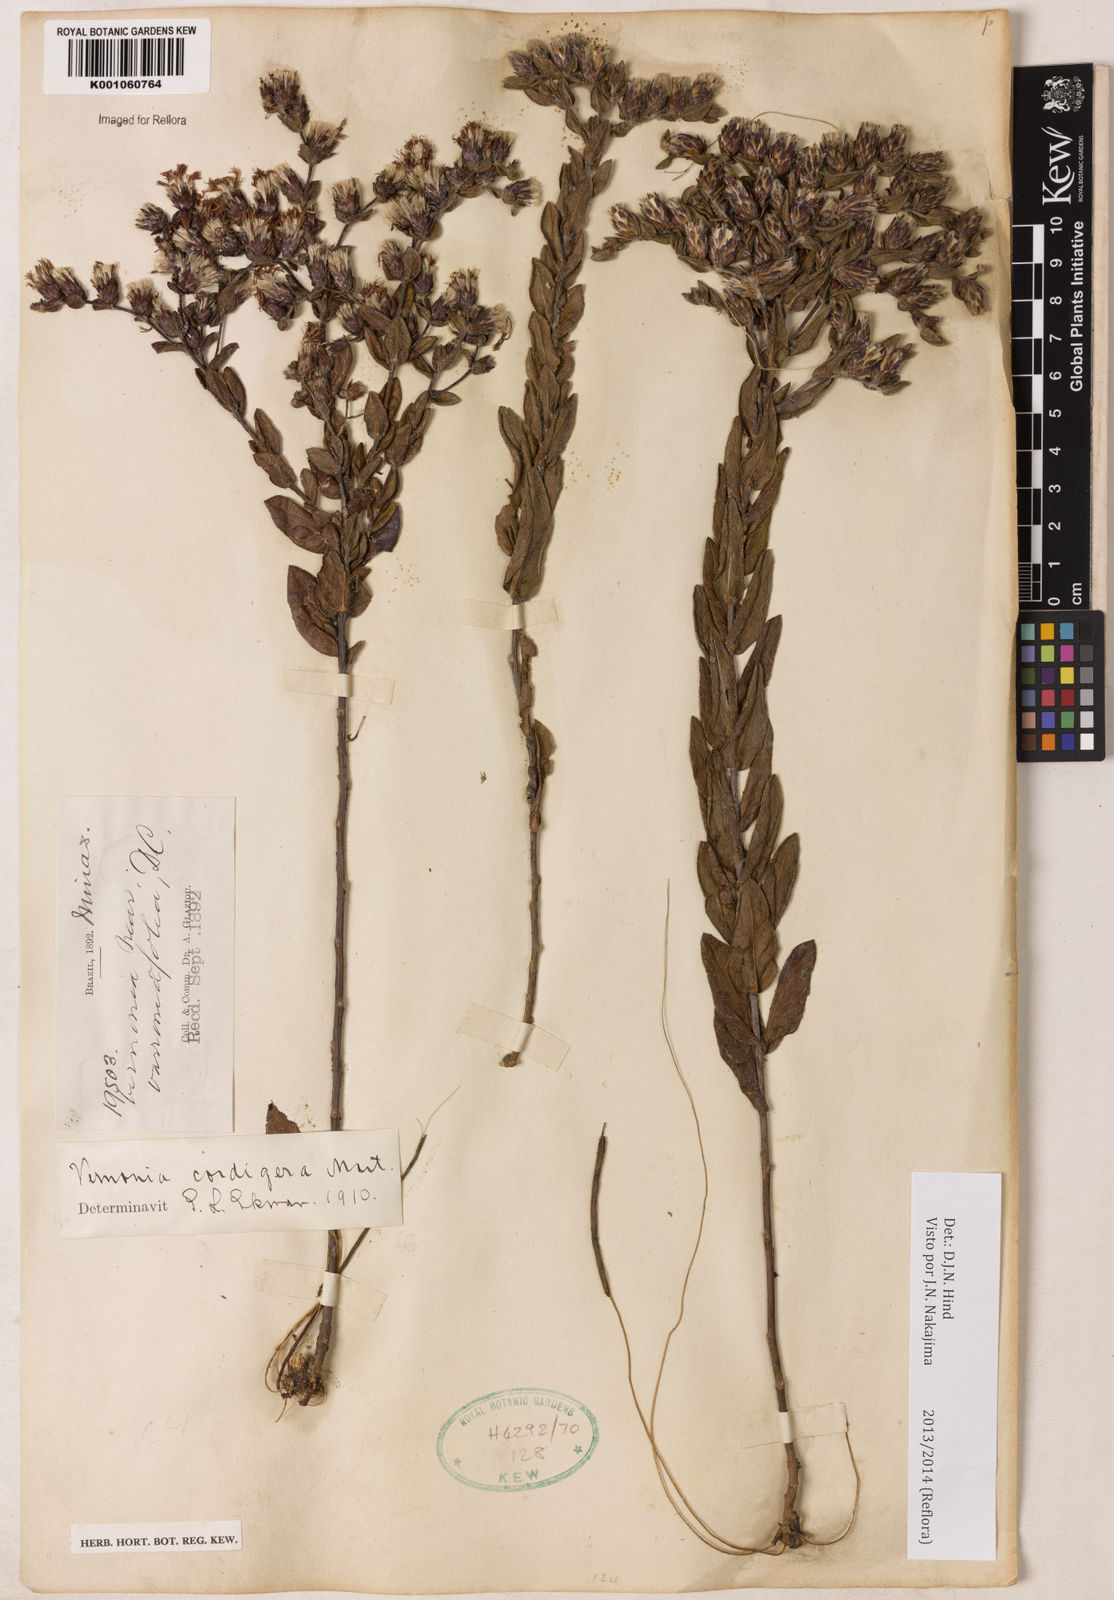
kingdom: Plantae
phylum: Tracheophyta
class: Magnoliopsida
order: Asterales
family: Asteraceae
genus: Lepidaploa
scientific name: Lepidaploa lilacina
